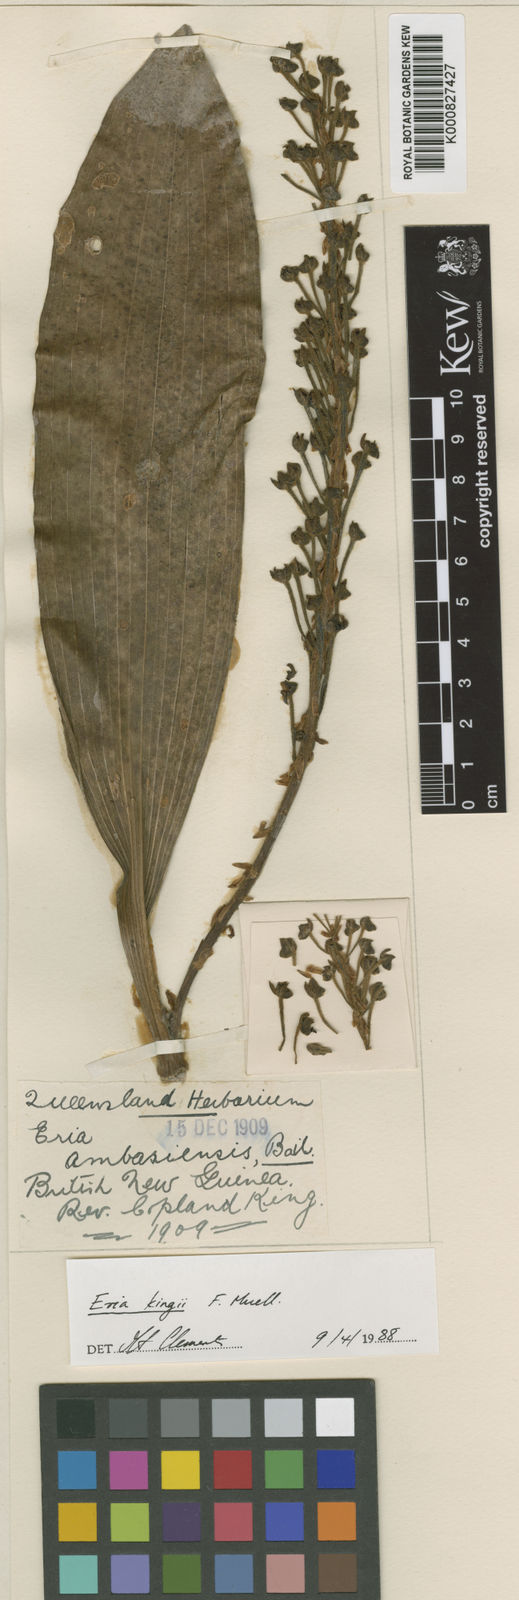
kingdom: Plantae
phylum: Tracheophyta
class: Liliopsida
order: Asparagales
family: Orchidaceae
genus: Mycaranthes
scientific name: Mycaranthes oblitterata
